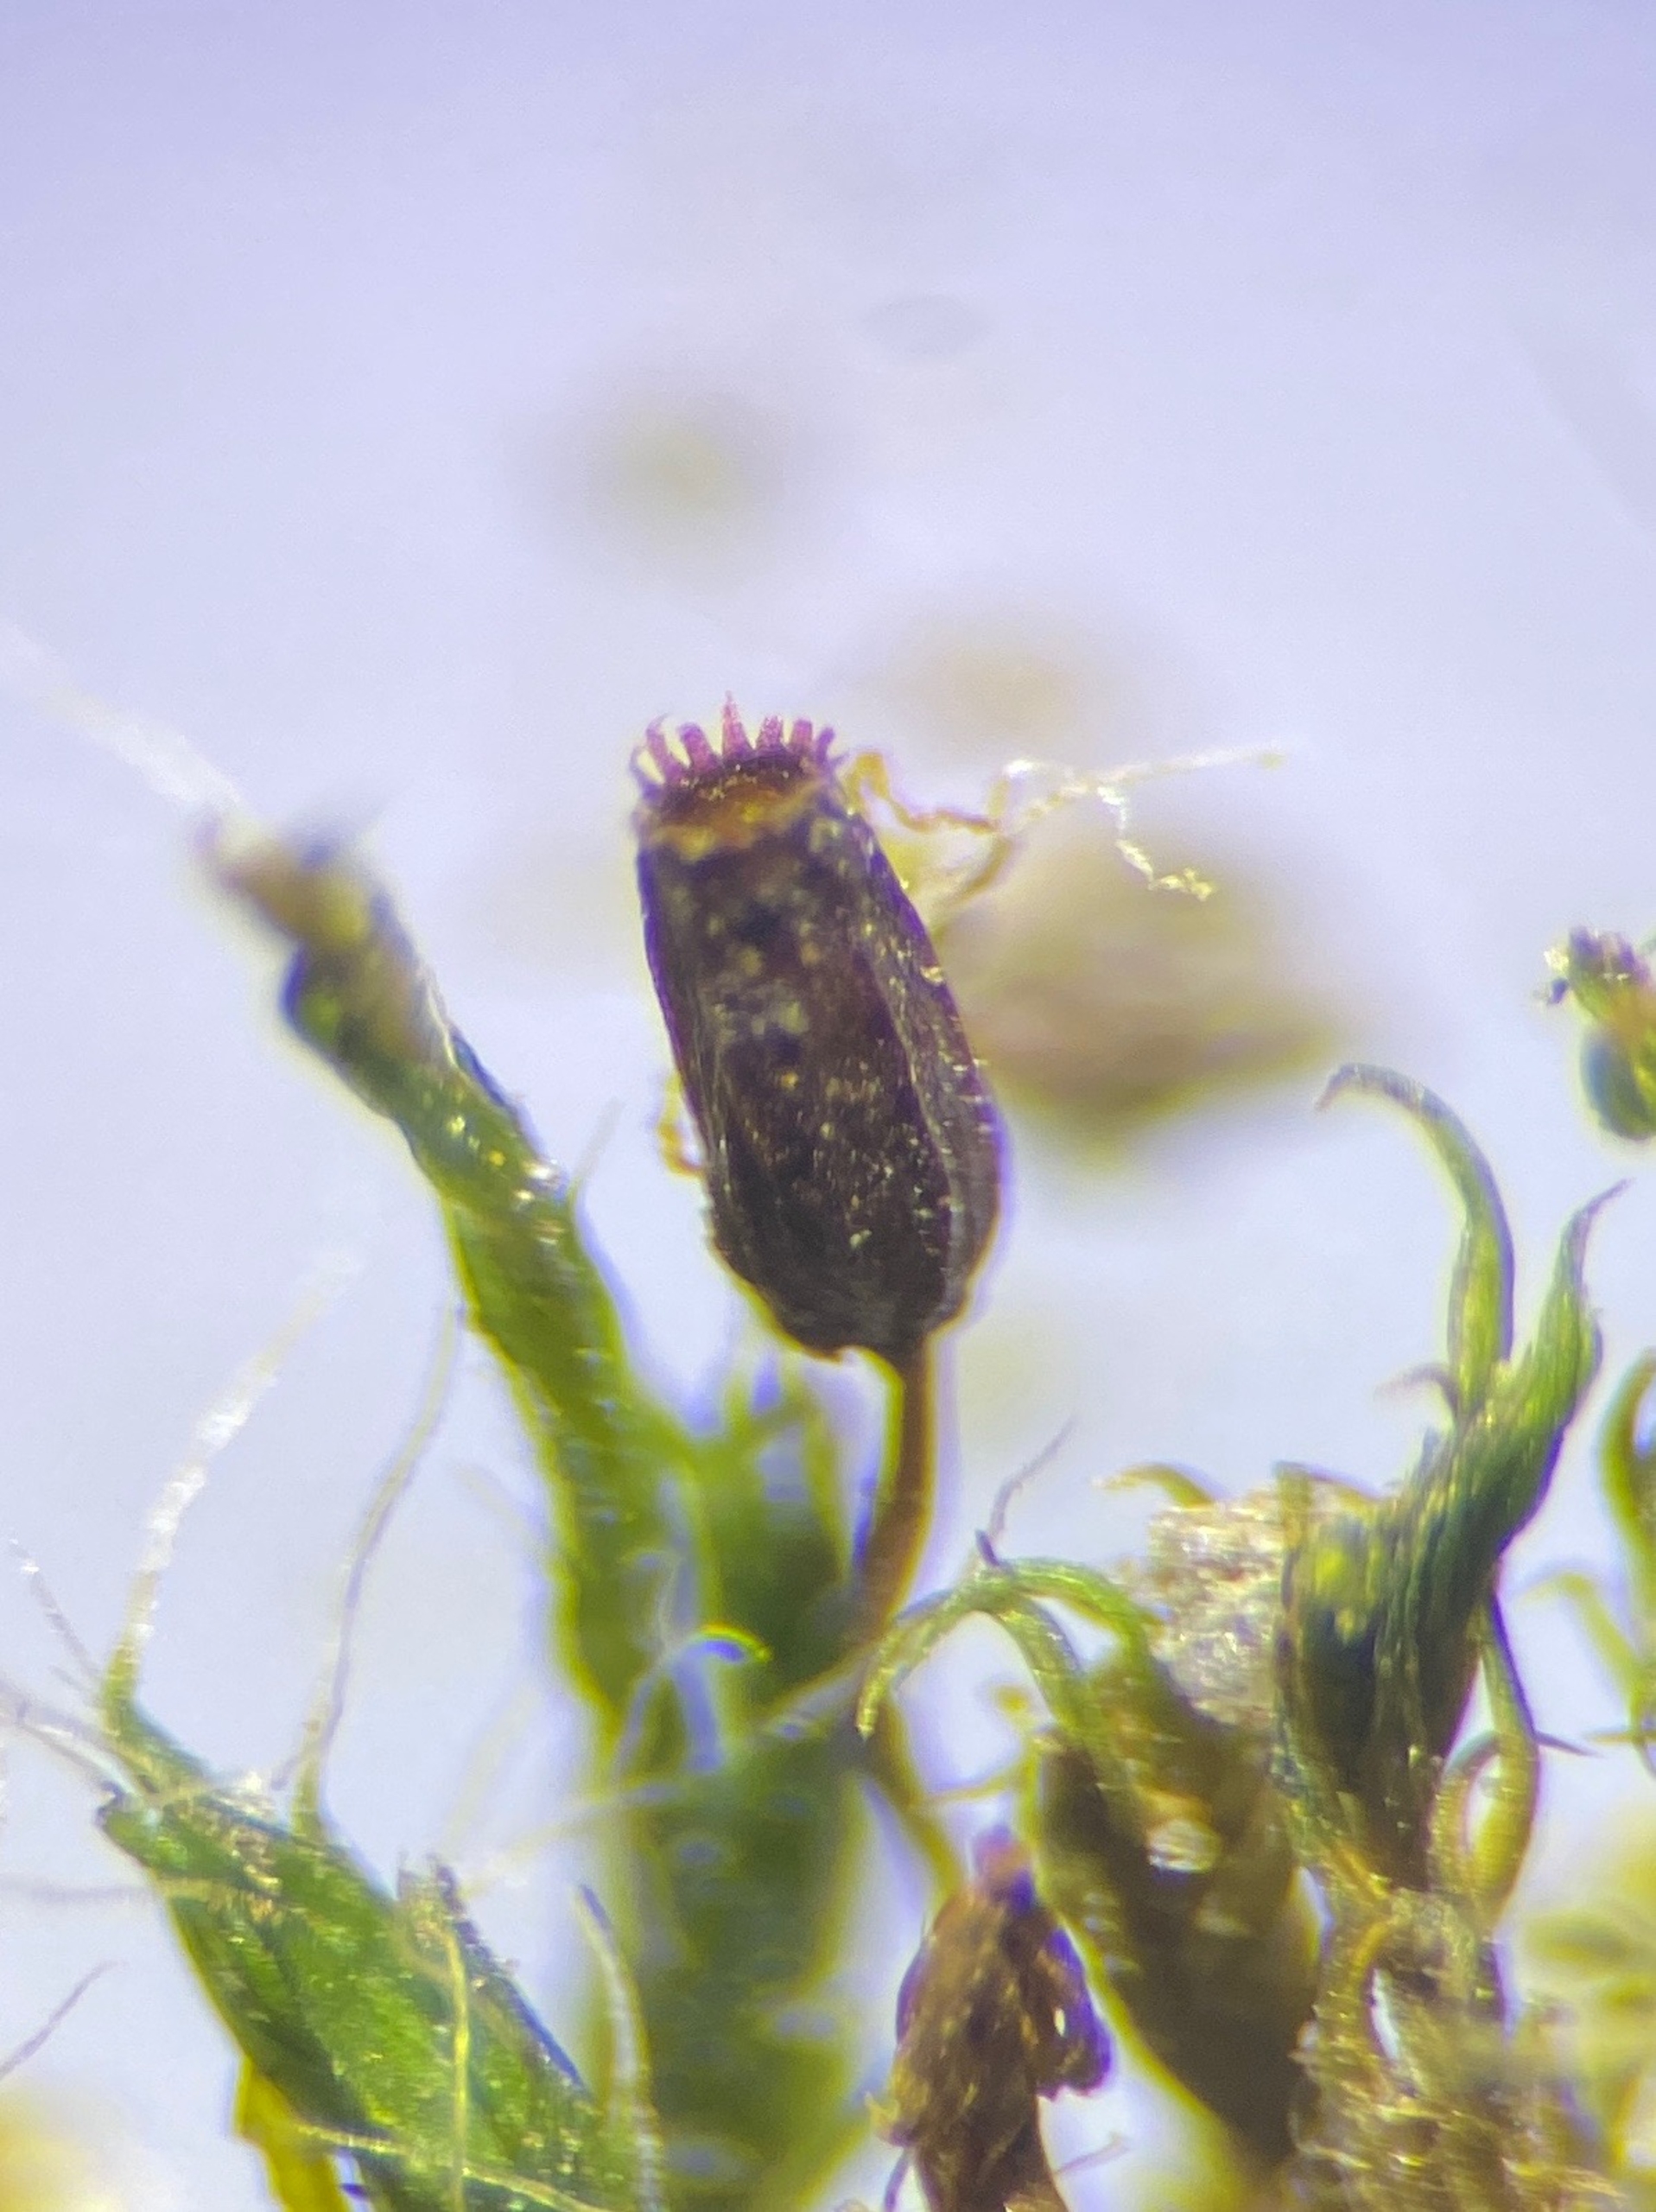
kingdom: Plantae
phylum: Bryophyta
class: Bryopsida
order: Grimmiales
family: Grimmiaceae
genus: Grimmia
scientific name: Grimmia pulvinata
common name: Pude-gråmos
